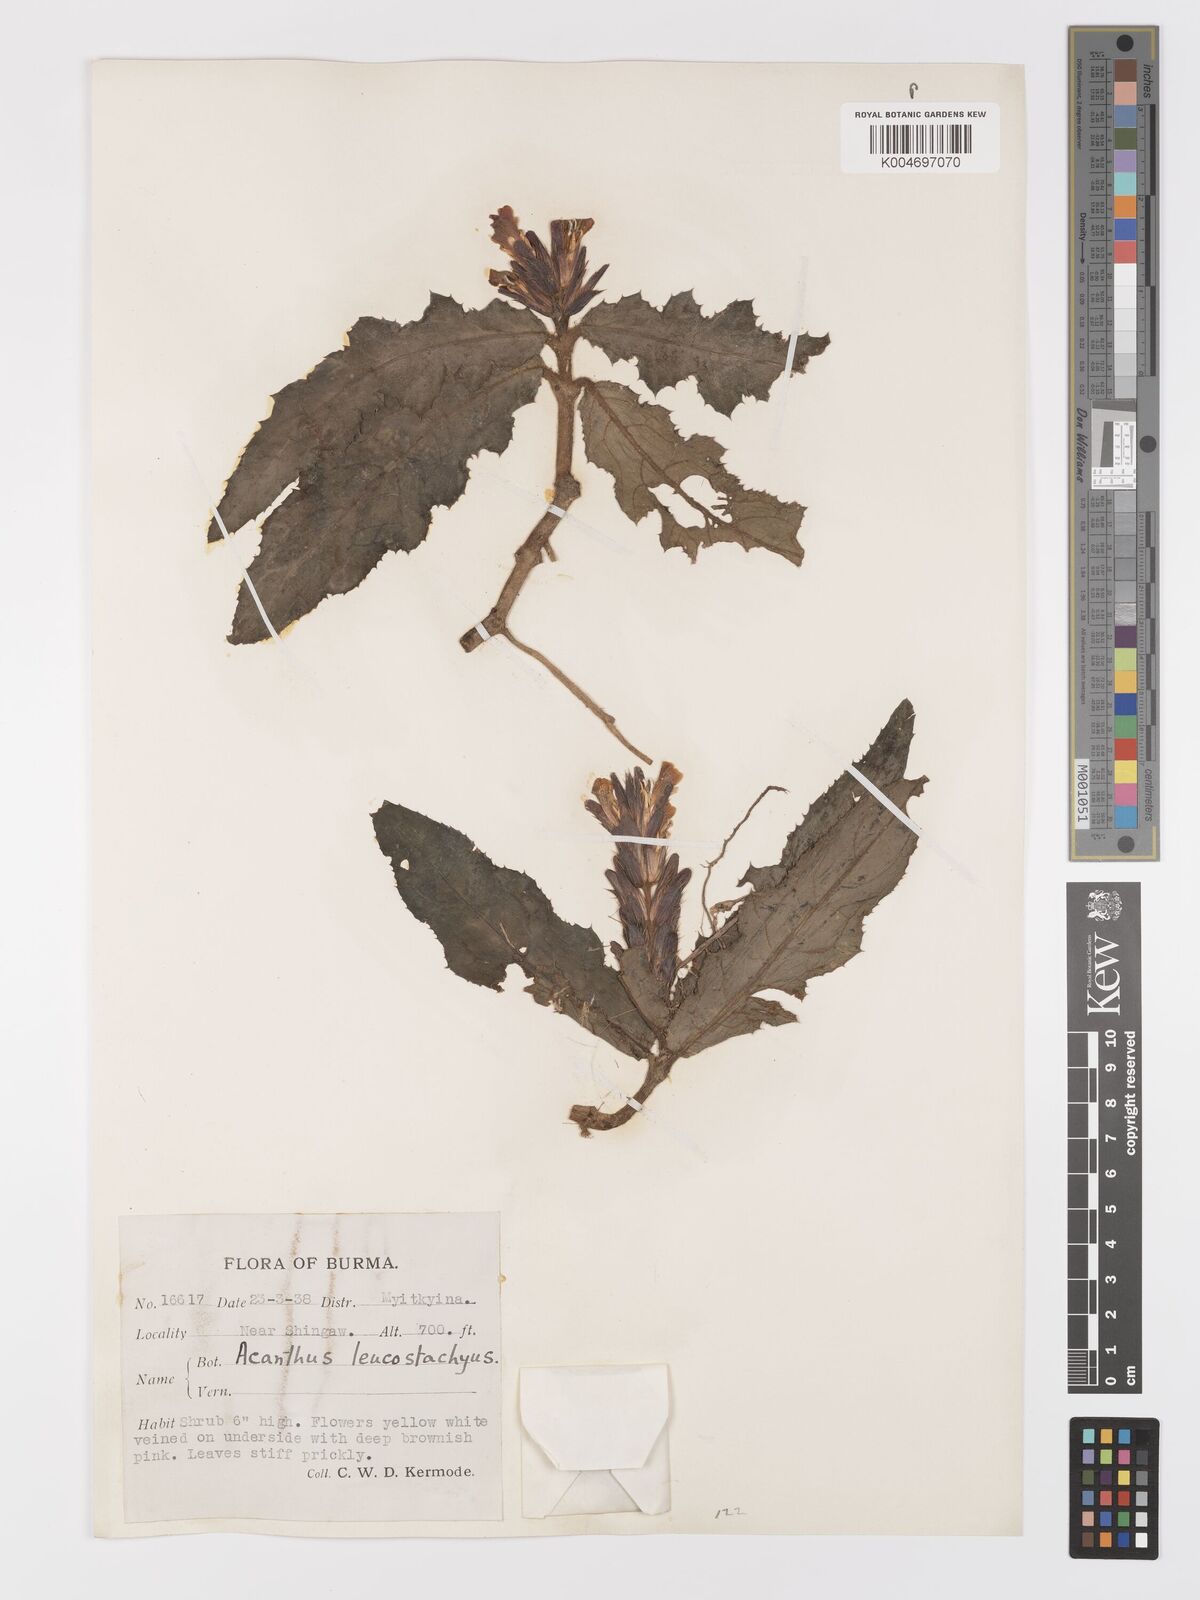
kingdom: Plantae
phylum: Tracheophyta
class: Magnoliopsida
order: Lamiales
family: Acanthaceae
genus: Acanthus
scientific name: Acanthus leucostachyus
